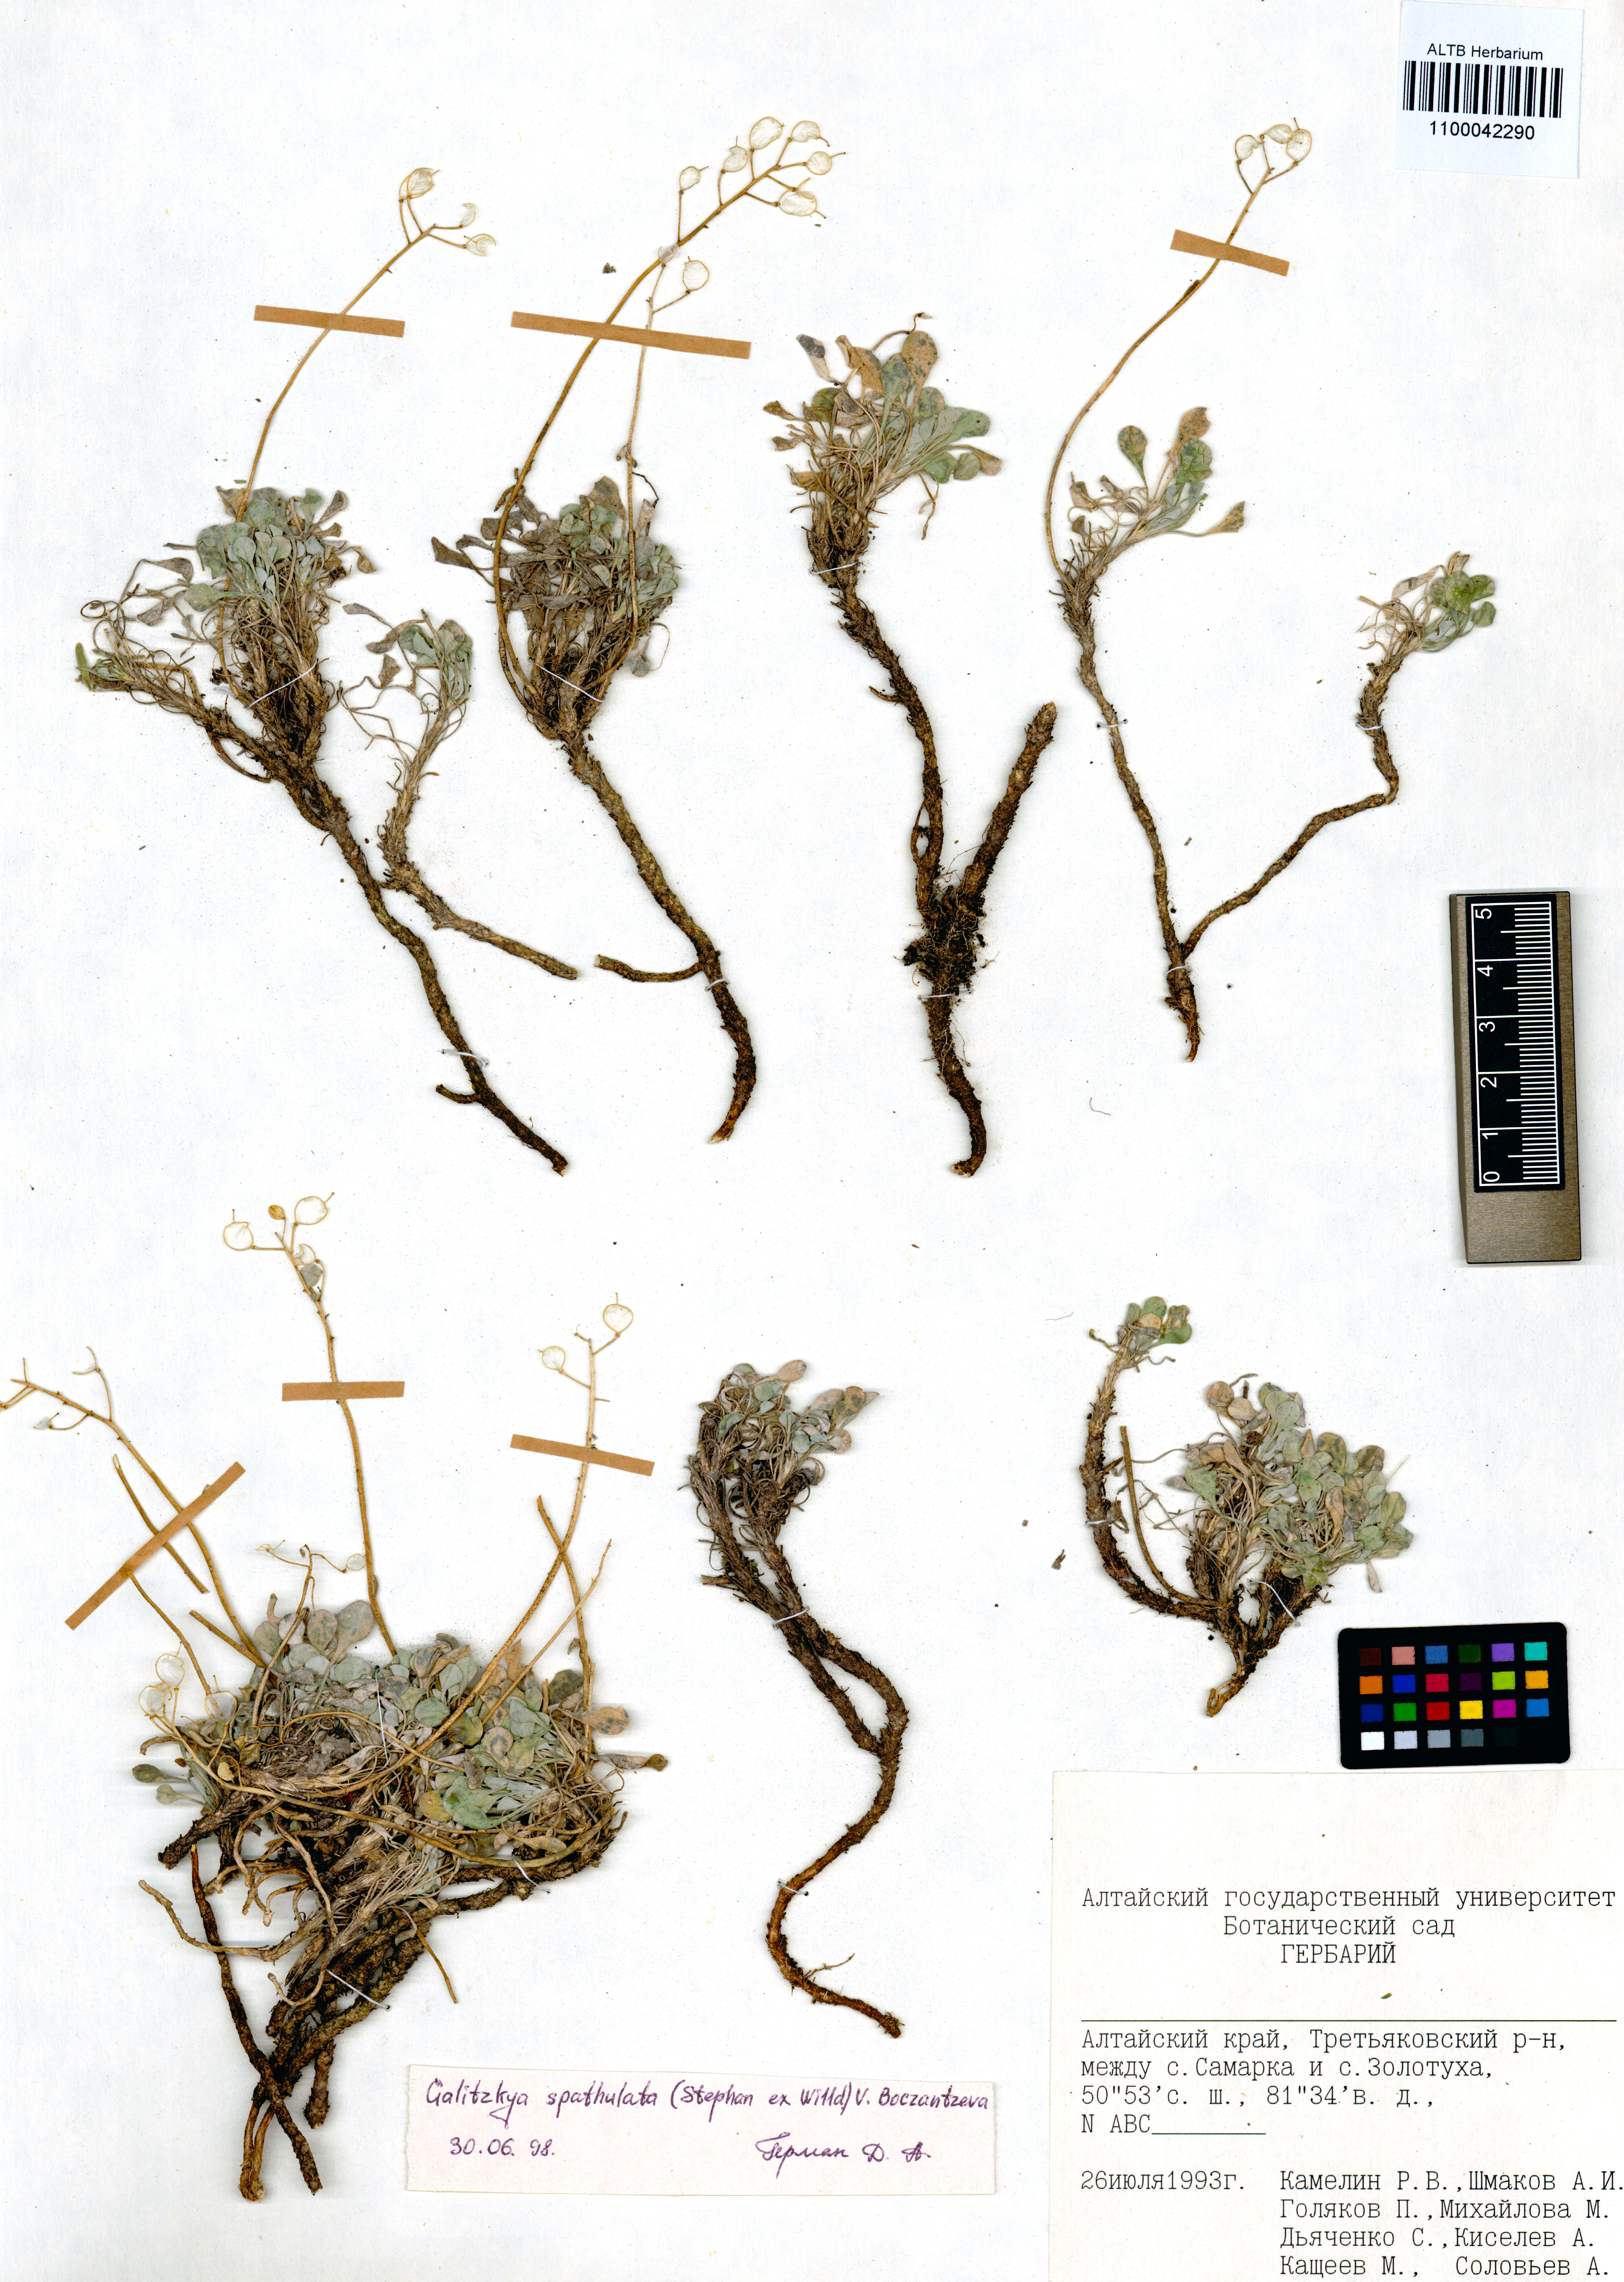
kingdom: Plantae
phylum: Tracheophyta
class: Magnoliopsida
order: Brassicales
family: Brassicaceae
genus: Galitzkya
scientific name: Galitzkya spathulata
